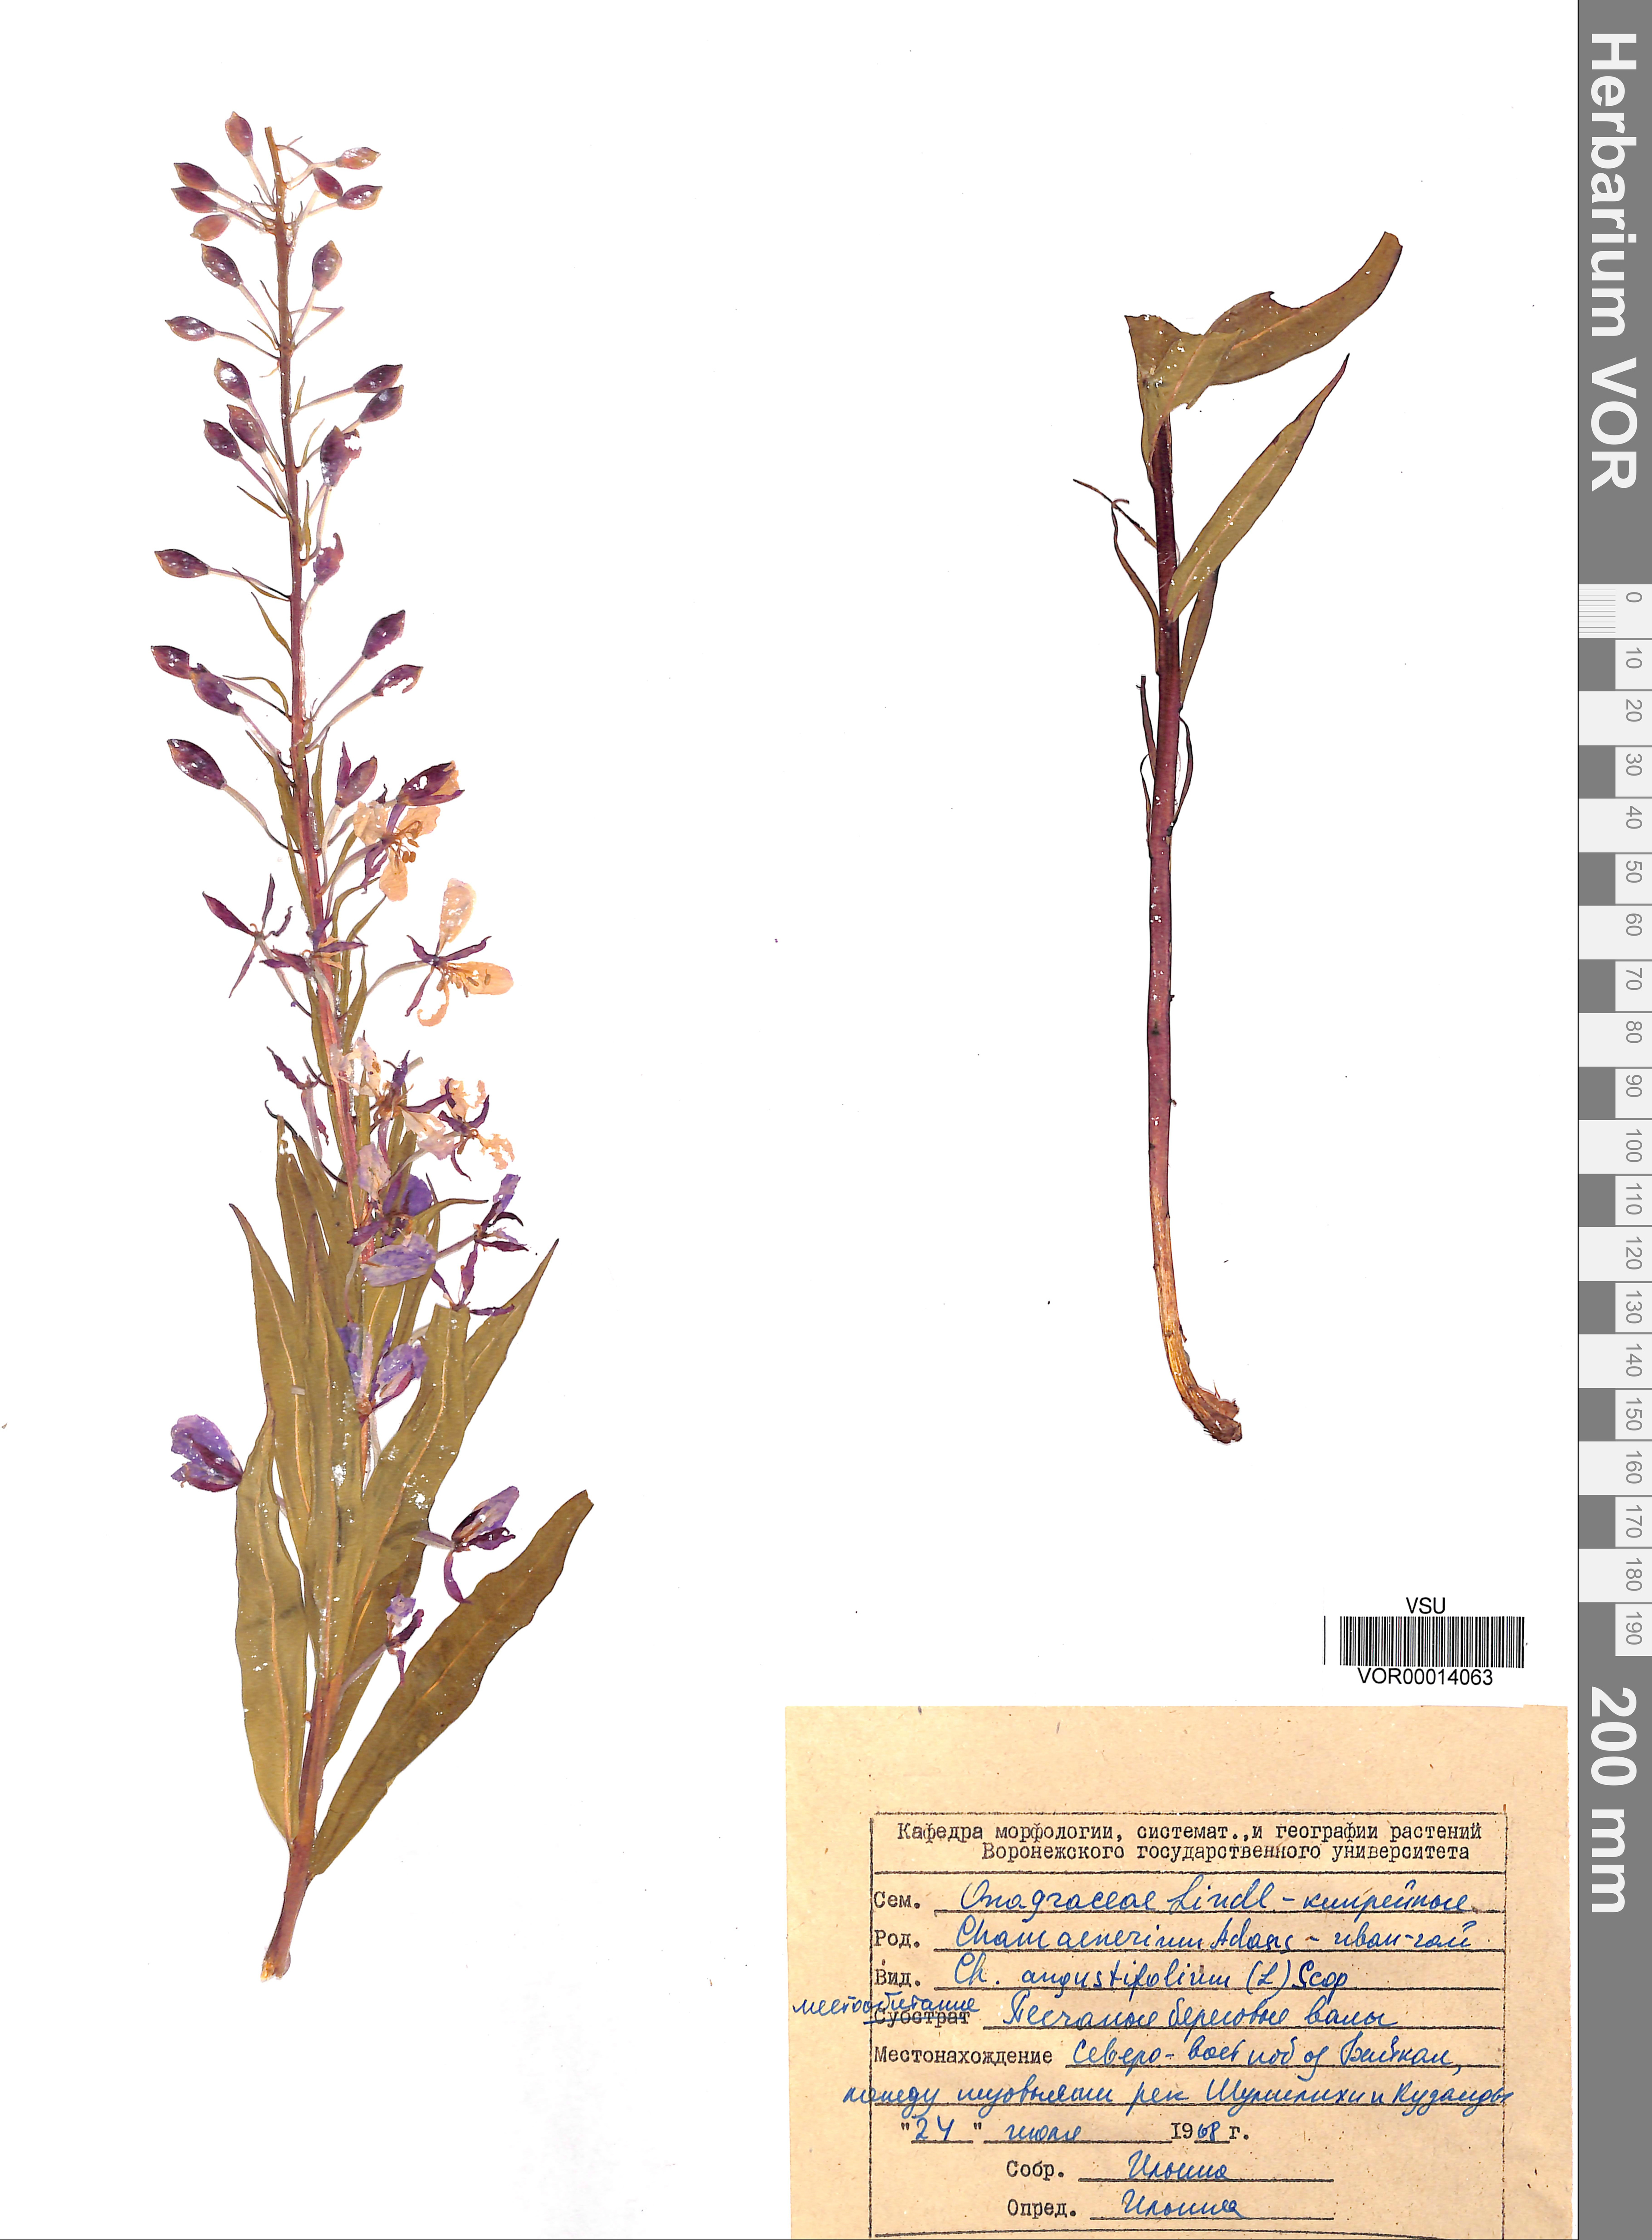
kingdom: Plantae
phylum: Tracheophyta
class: Magnoliopsida
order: Myrtales
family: Onagraceae
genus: Chamaenerion
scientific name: Chamaenerion angustifolium
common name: Fireweed
